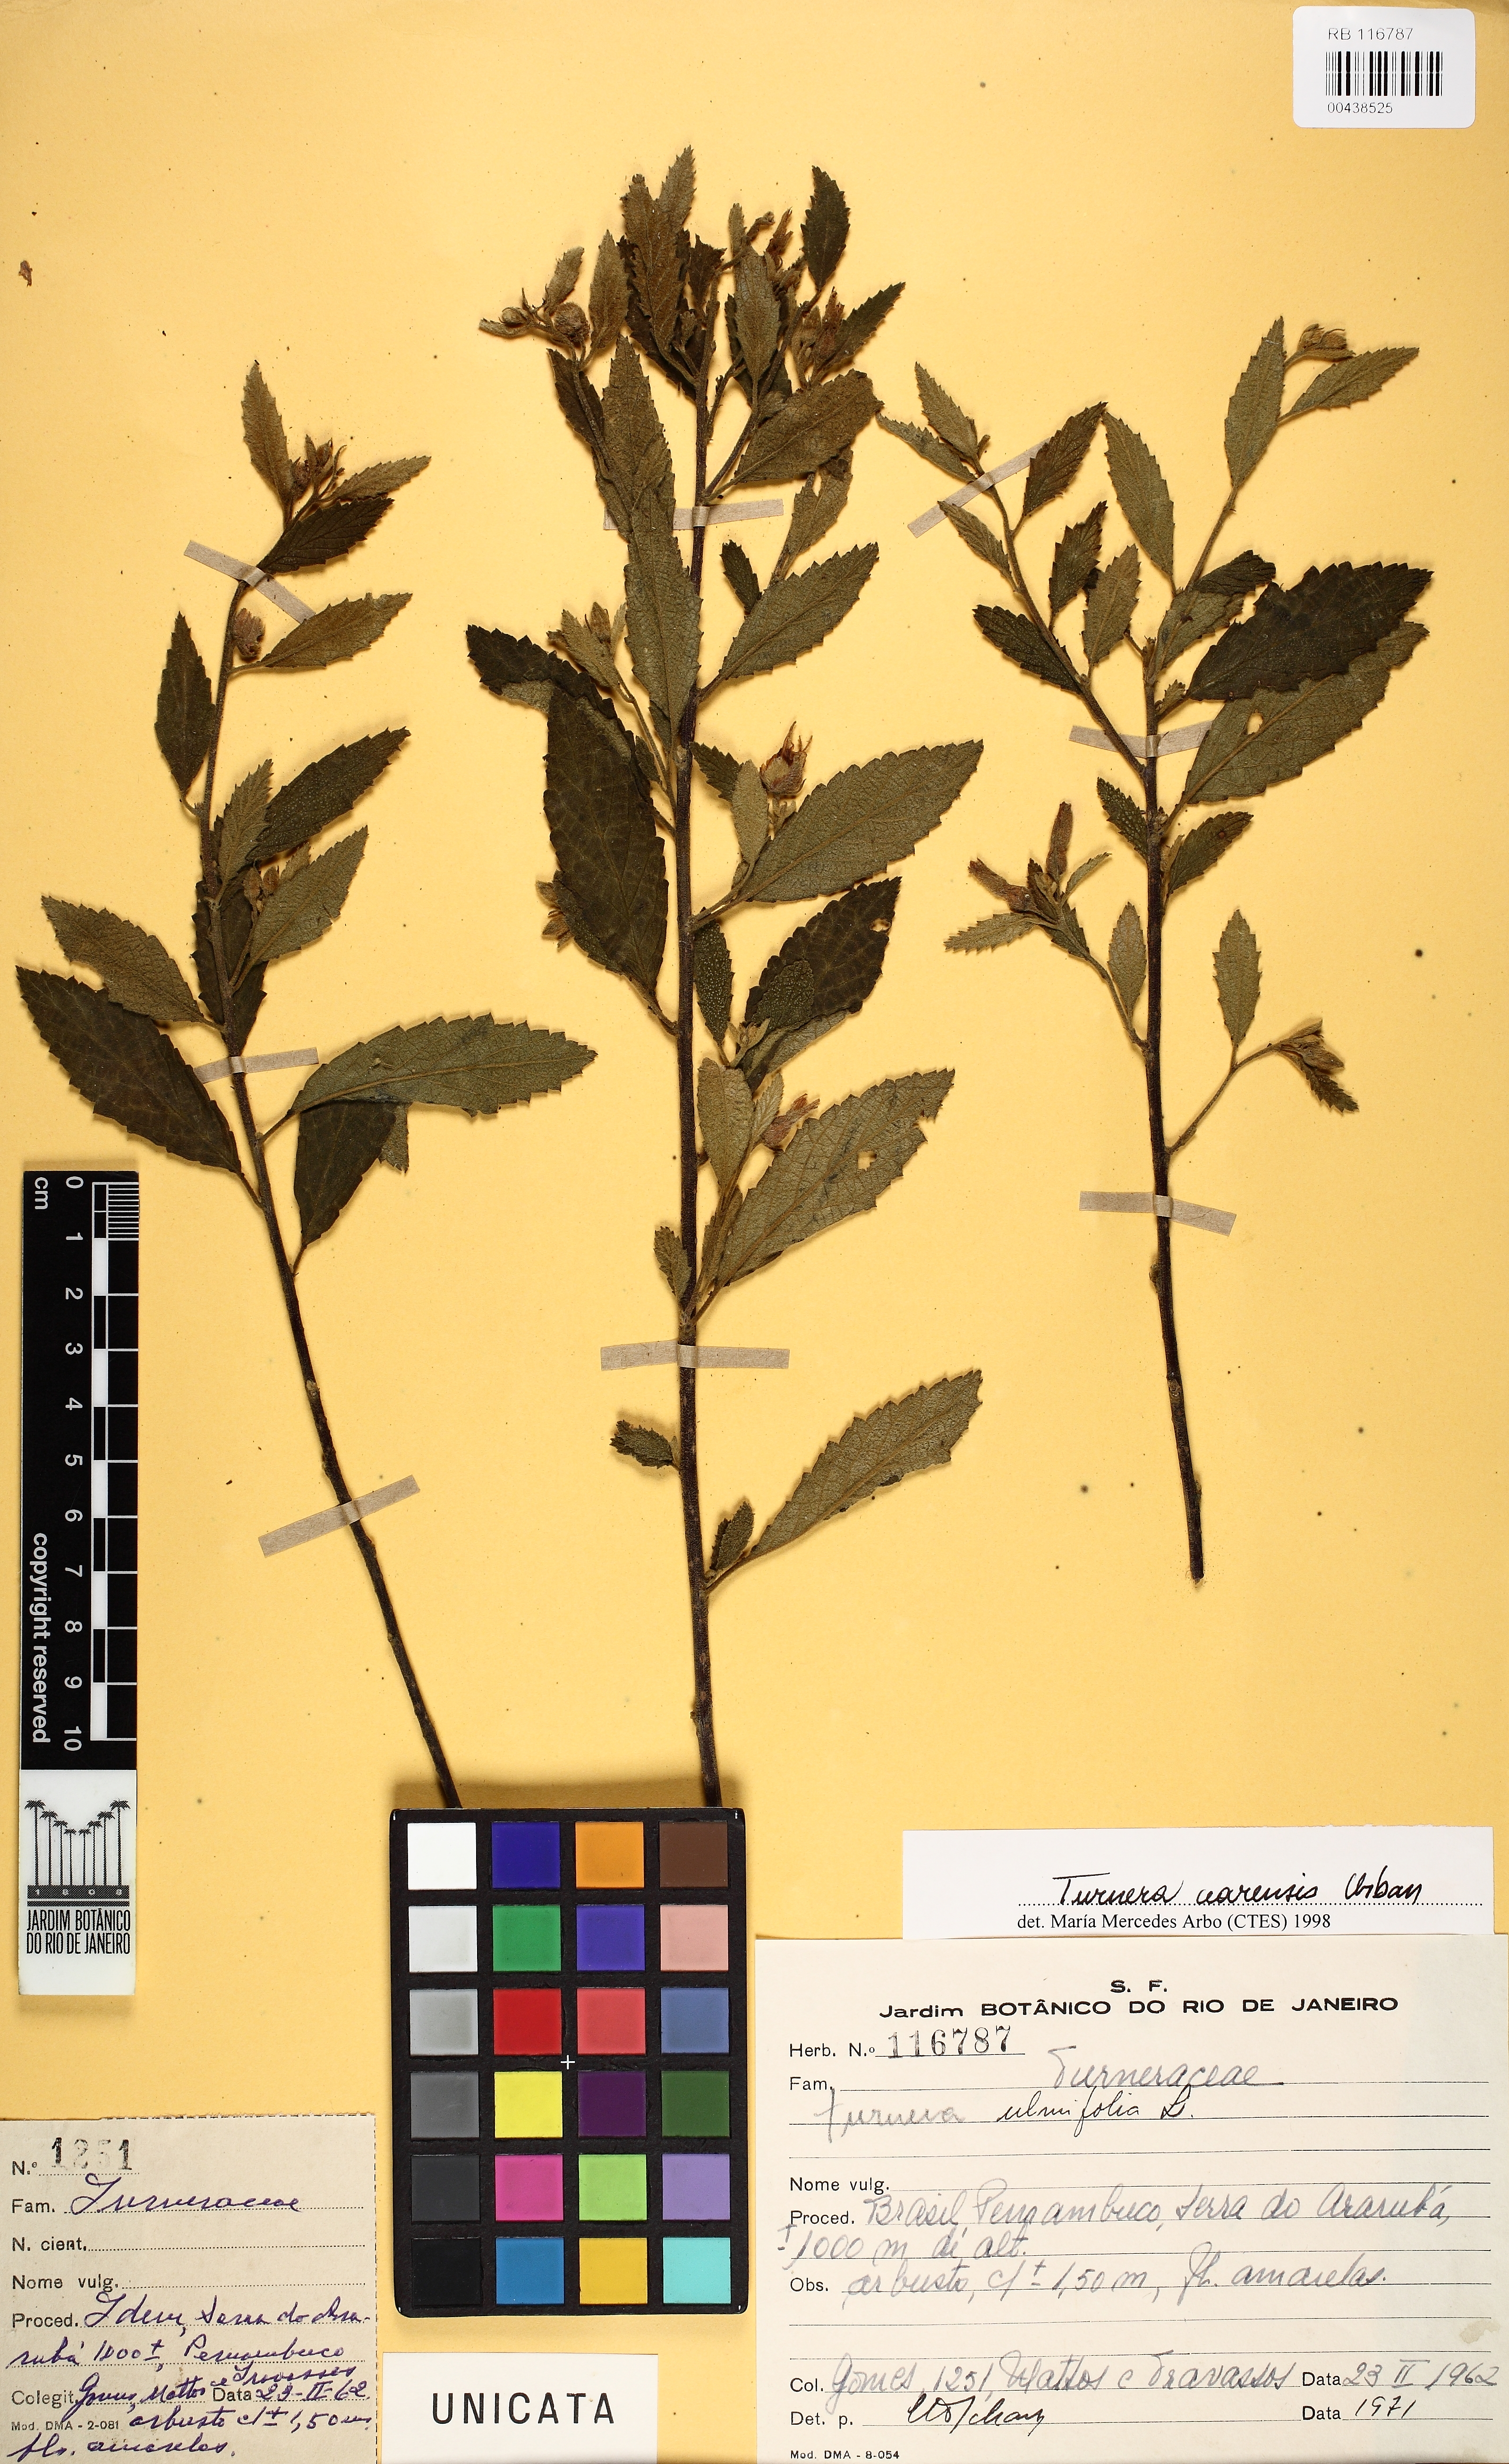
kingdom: Plantae
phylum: Tracheophyta
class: Magnoliopsida
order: Malpighiales
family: Turneraceae
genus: Turnera
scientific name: Turnera cearensis
